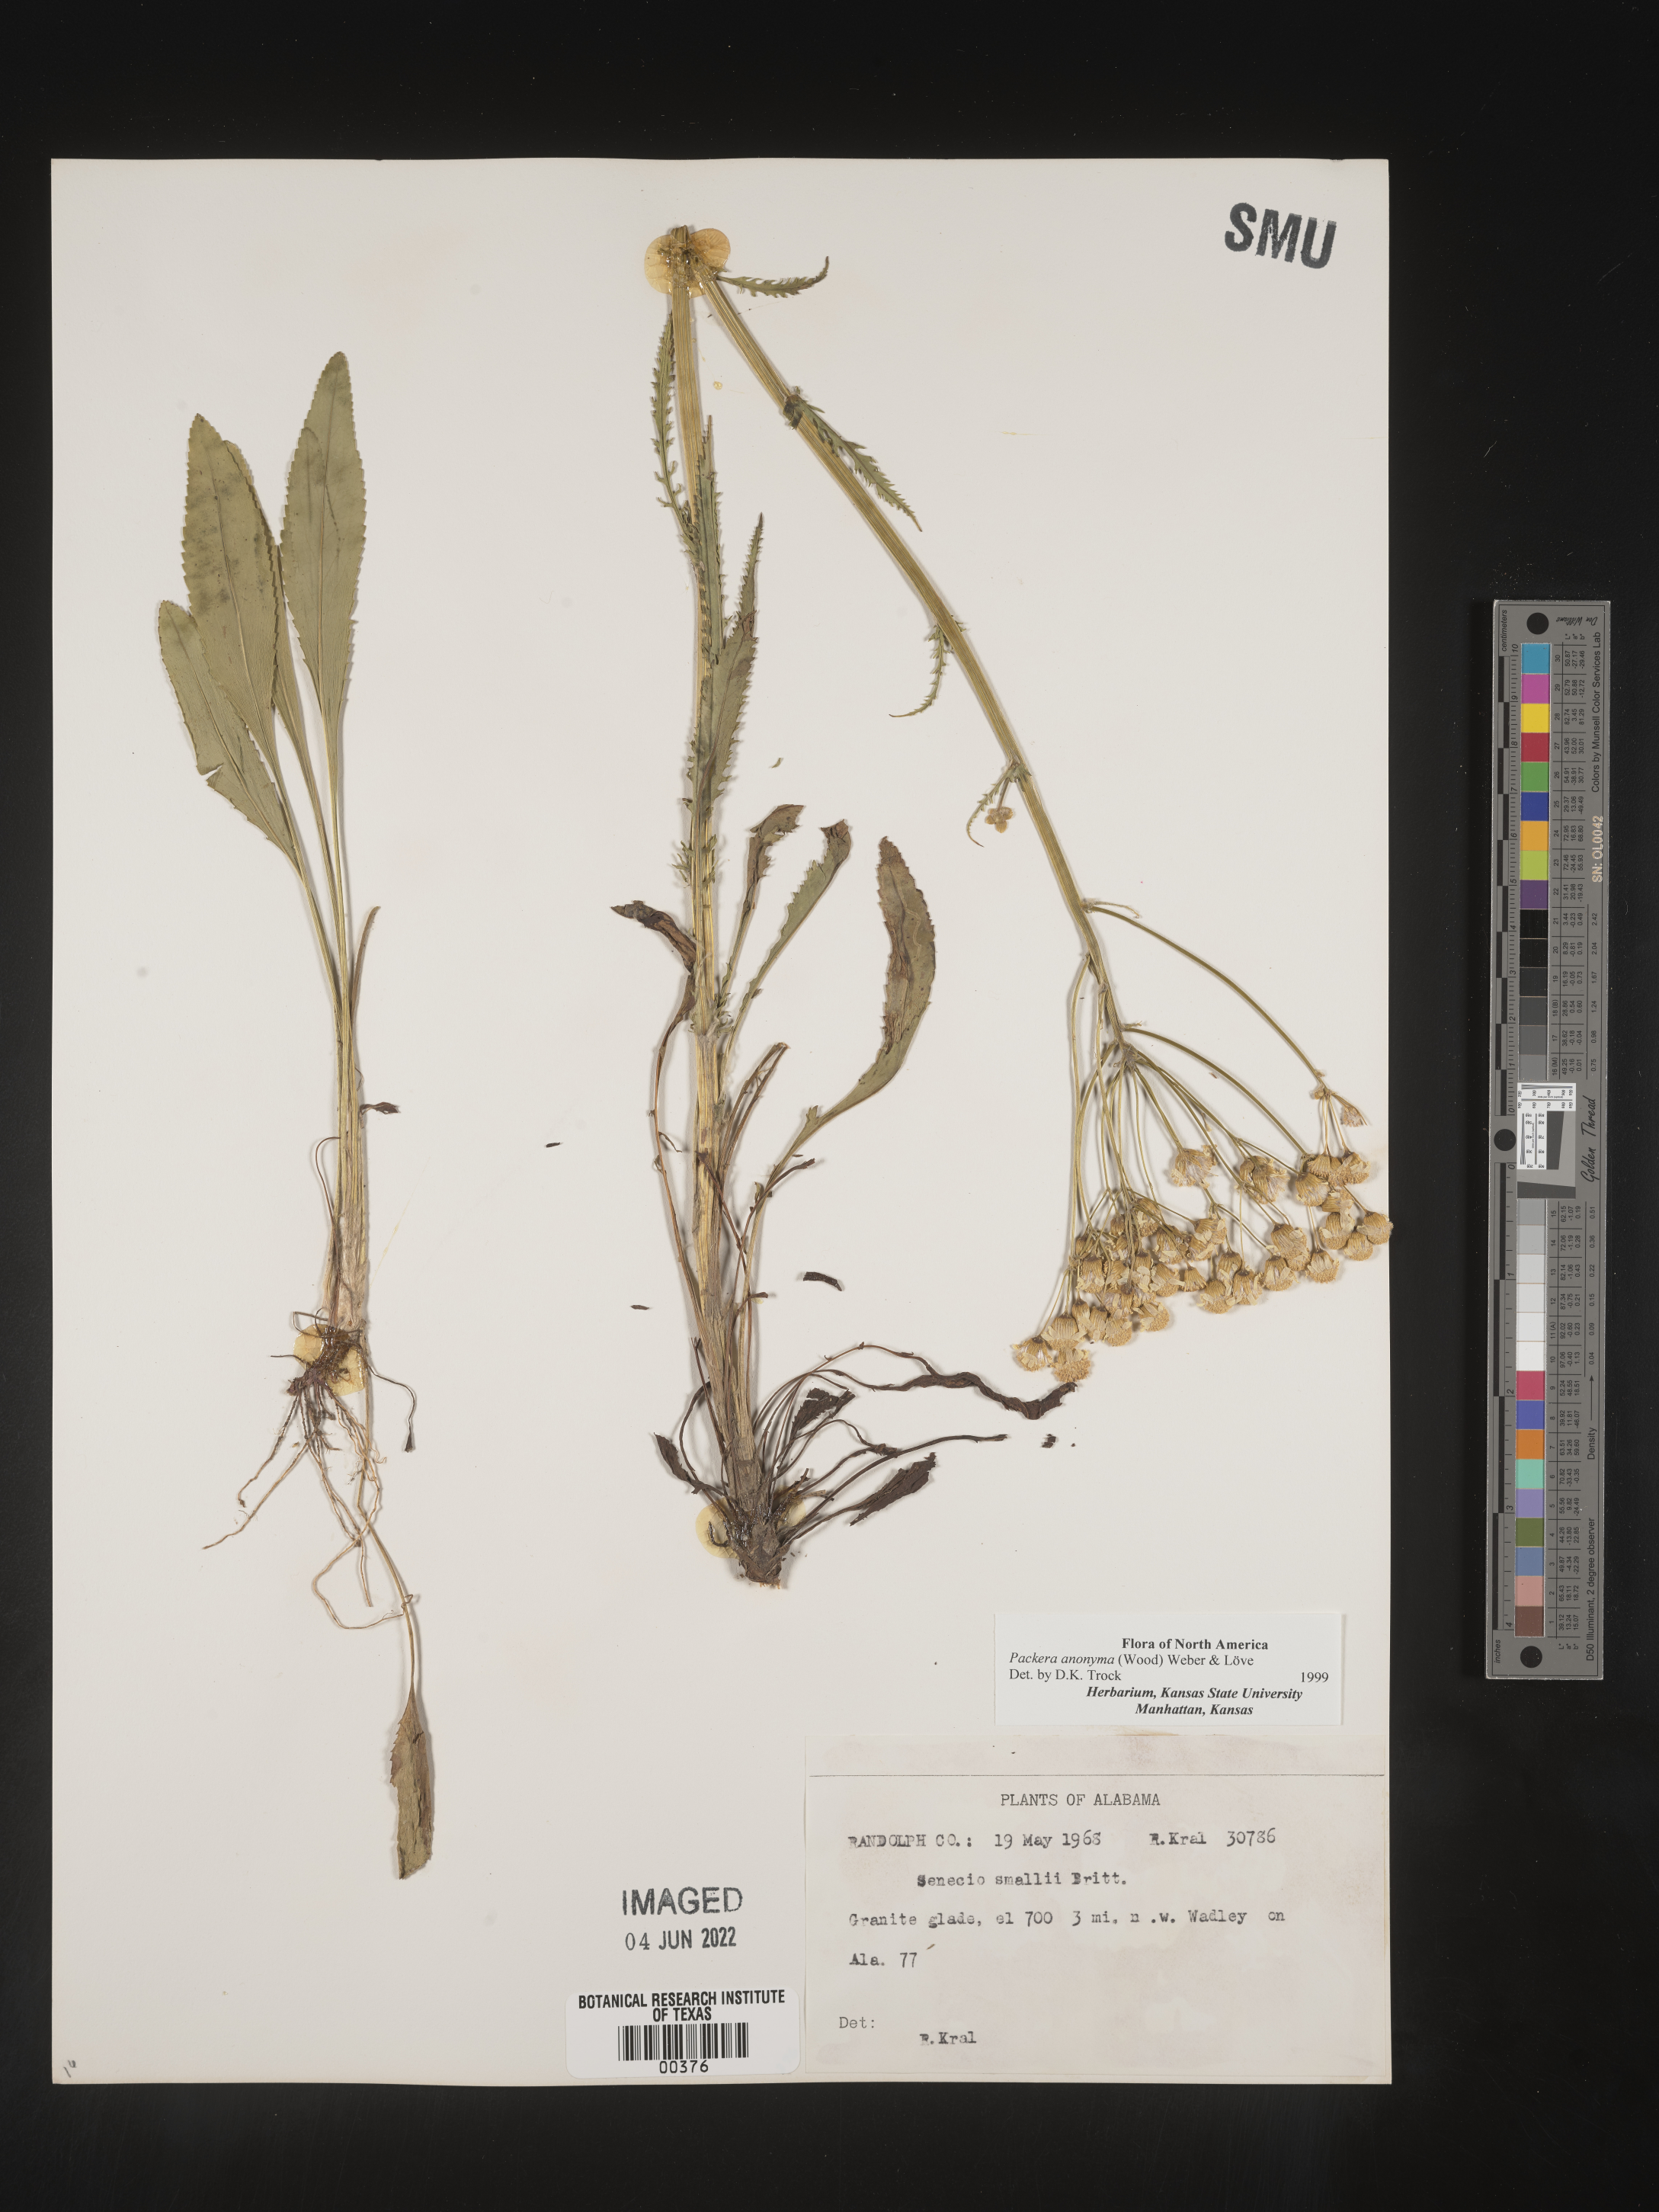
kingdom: Plantae
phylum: Tracheophyta
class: Magnoliopsida
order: Asterales
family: Asteraceae
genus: Packera
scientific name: Packera anonyma
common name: Small ragwort
